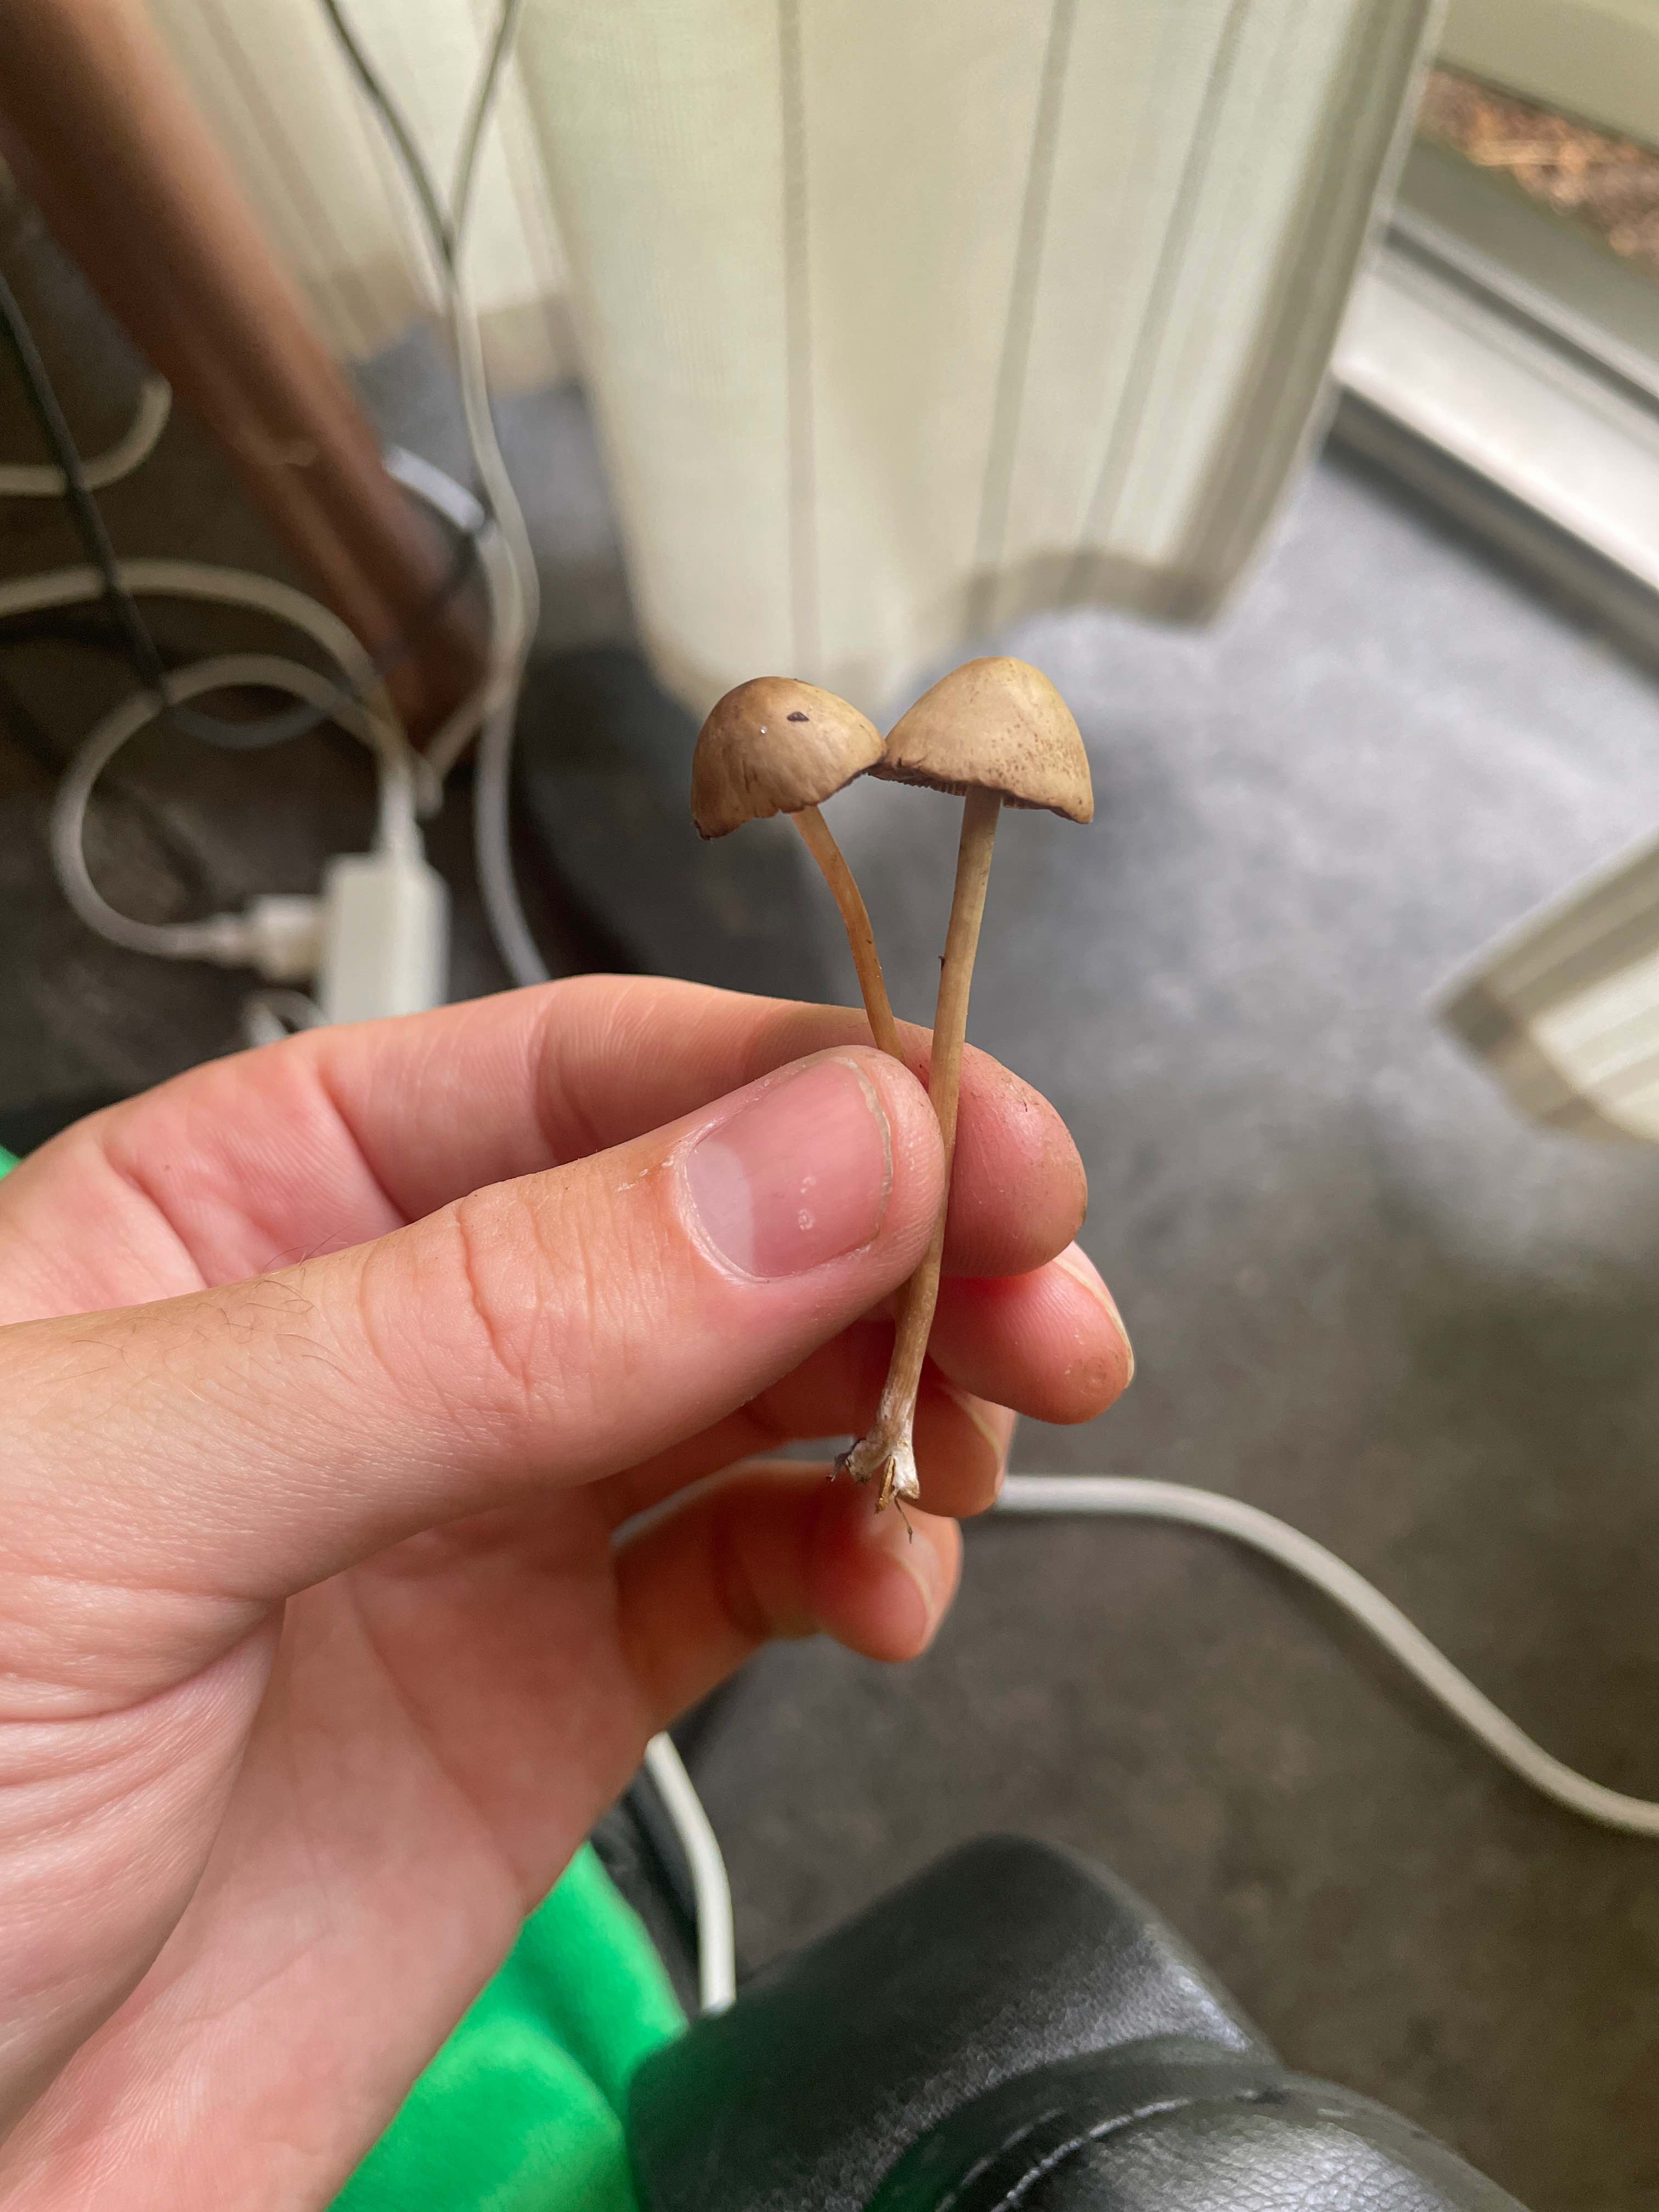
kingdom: Fungi
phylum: Basidiomycota
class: Agaricomycetes
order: Agaricales
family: Bolbitiaceae
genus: Panaeolina
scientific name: Panaeolina foenisecii
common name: høslætsvamp
